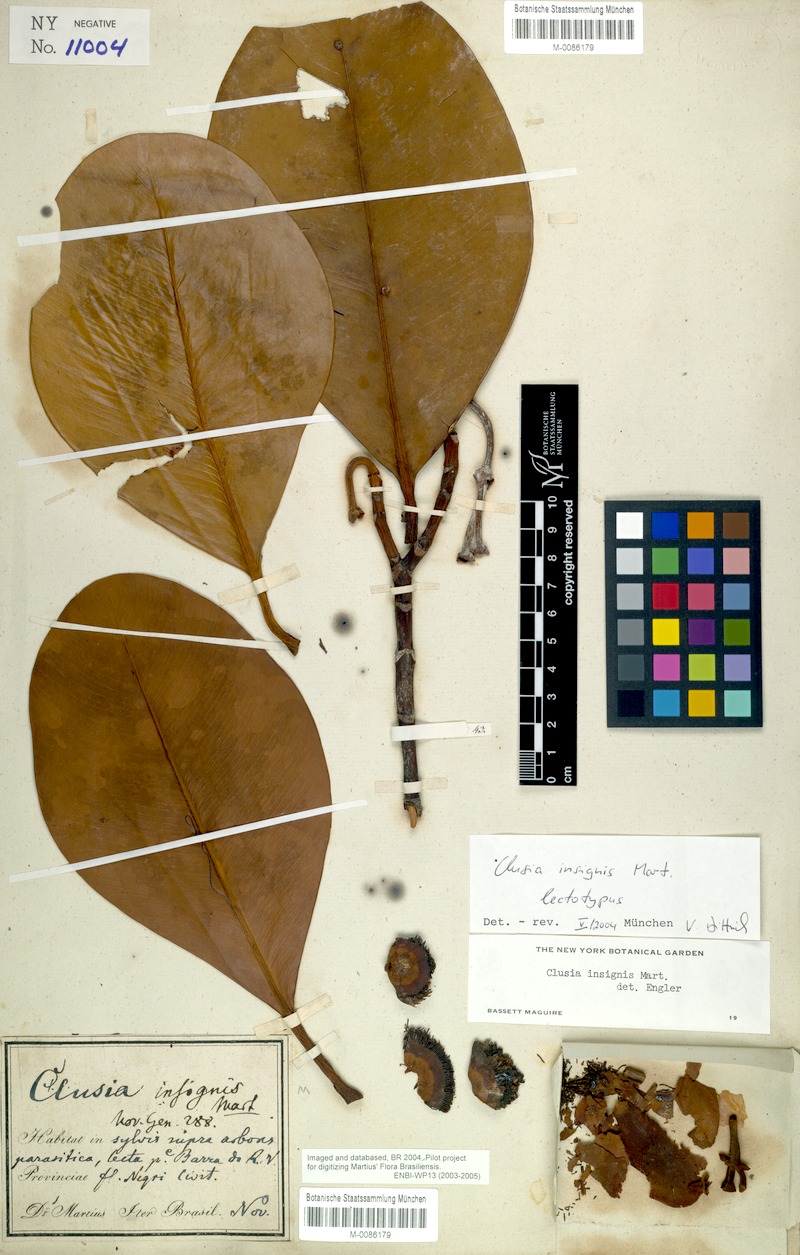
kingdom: Plantae
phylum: Tracheophyta
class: Magnoliopsida
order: Malpighiales
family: Clusiaceae
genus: Clusia
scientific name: Clusia insignis
